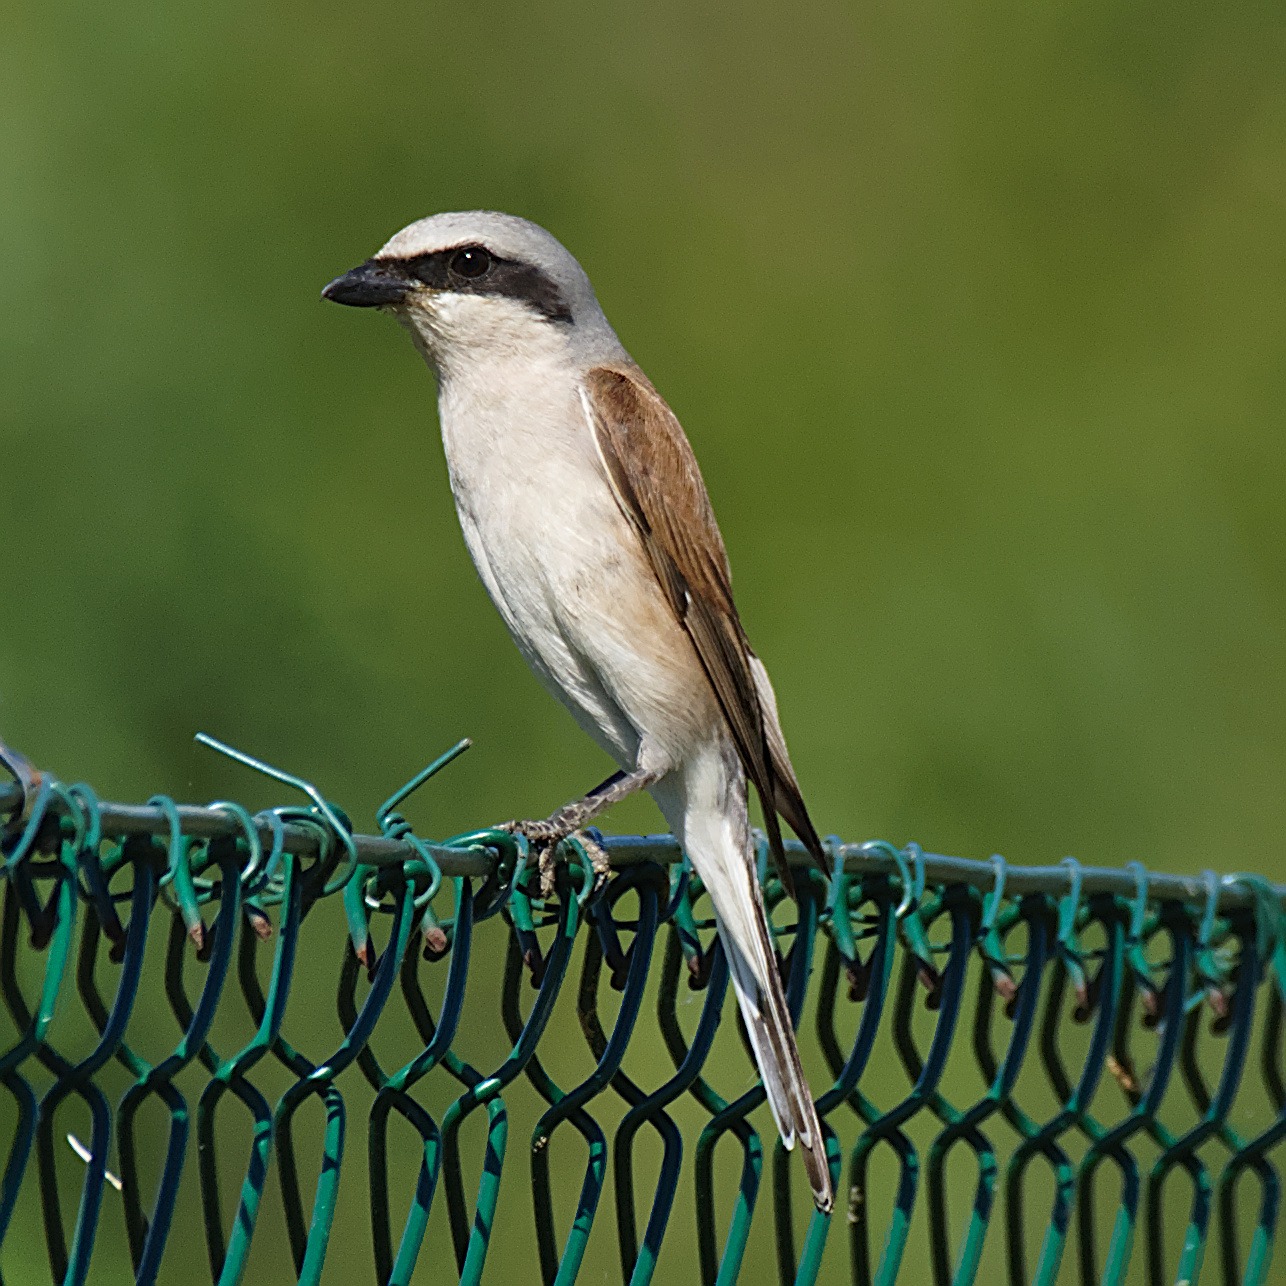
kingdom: Animalia
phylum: Chordata
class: Aves
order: Passeriformes
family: Laniidae
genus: Lanius
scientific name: Lanius collurio
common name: Rødrygget tornskade
